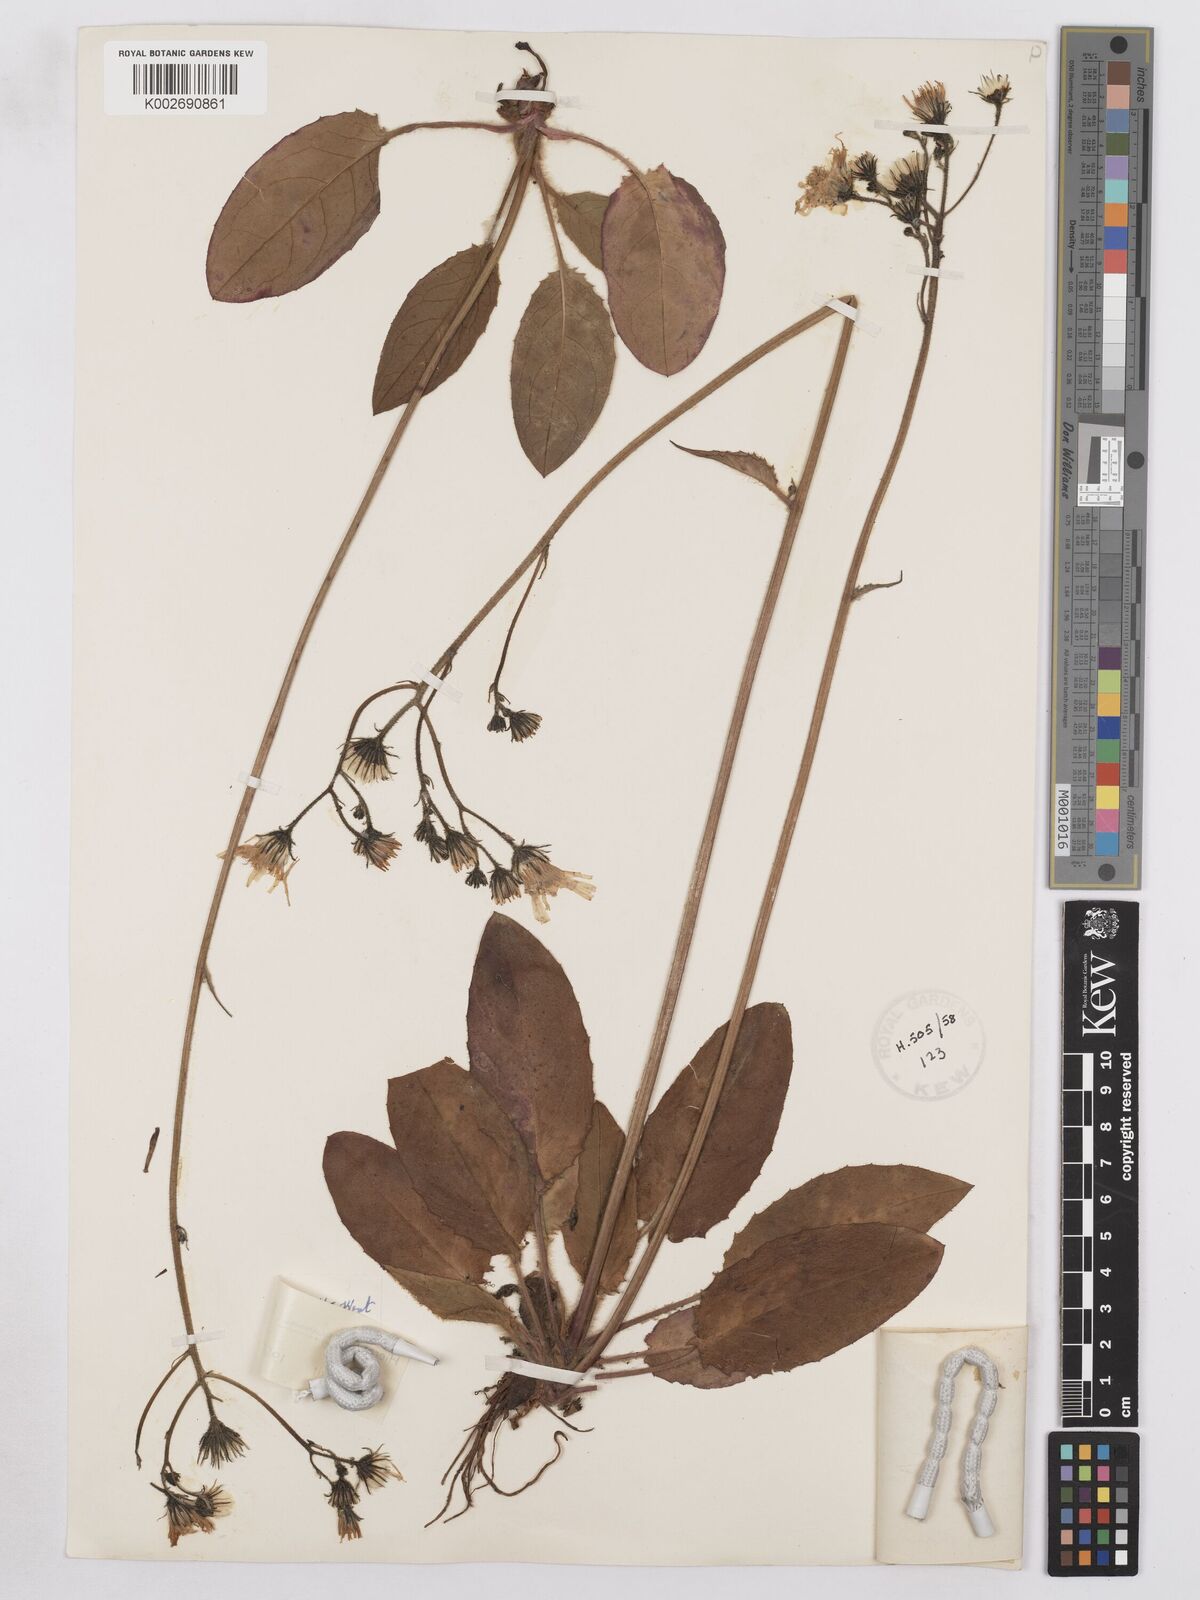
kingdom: Plantae
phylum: Tracheophyta
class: Magnoliopsida
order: Asterales
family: Asteraceae
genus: Hieracium
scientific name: Hieracium glevense
